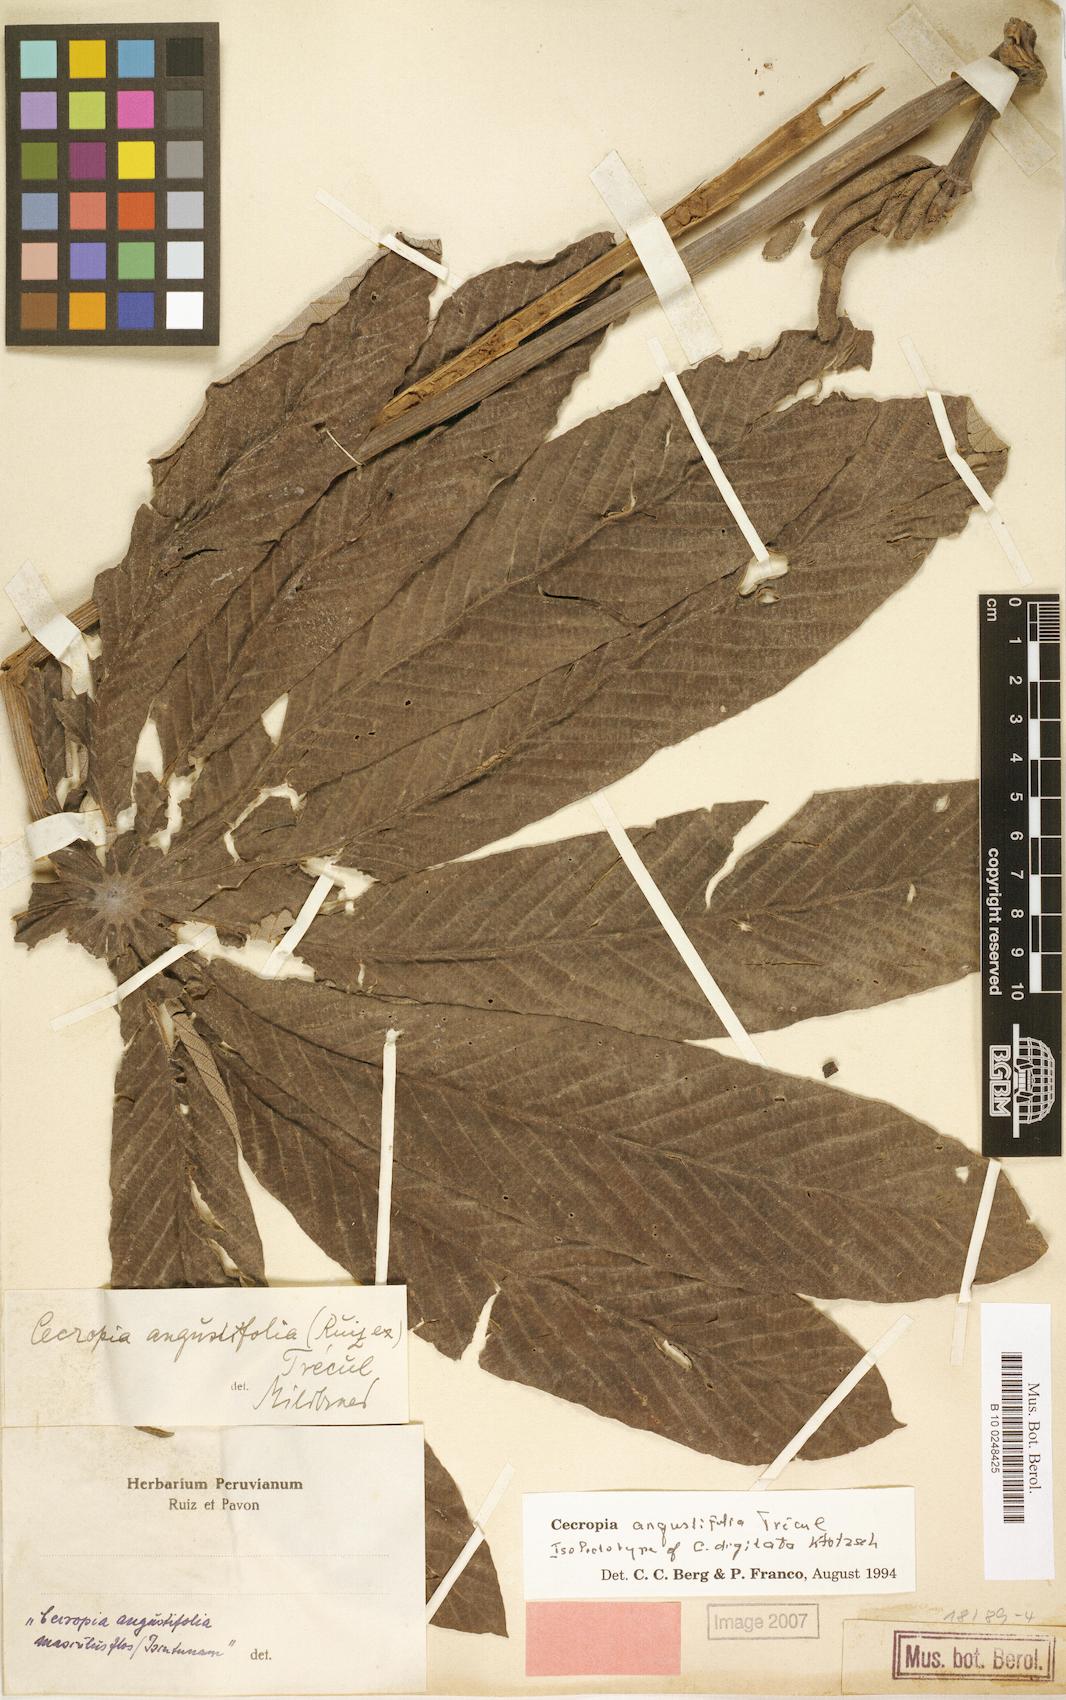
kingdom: Plantae
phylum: Tracheophyta
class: Magnoliopsida
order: Rosales
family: Urticaceae
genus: Cecropia
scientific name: Cecropia angustifolia
